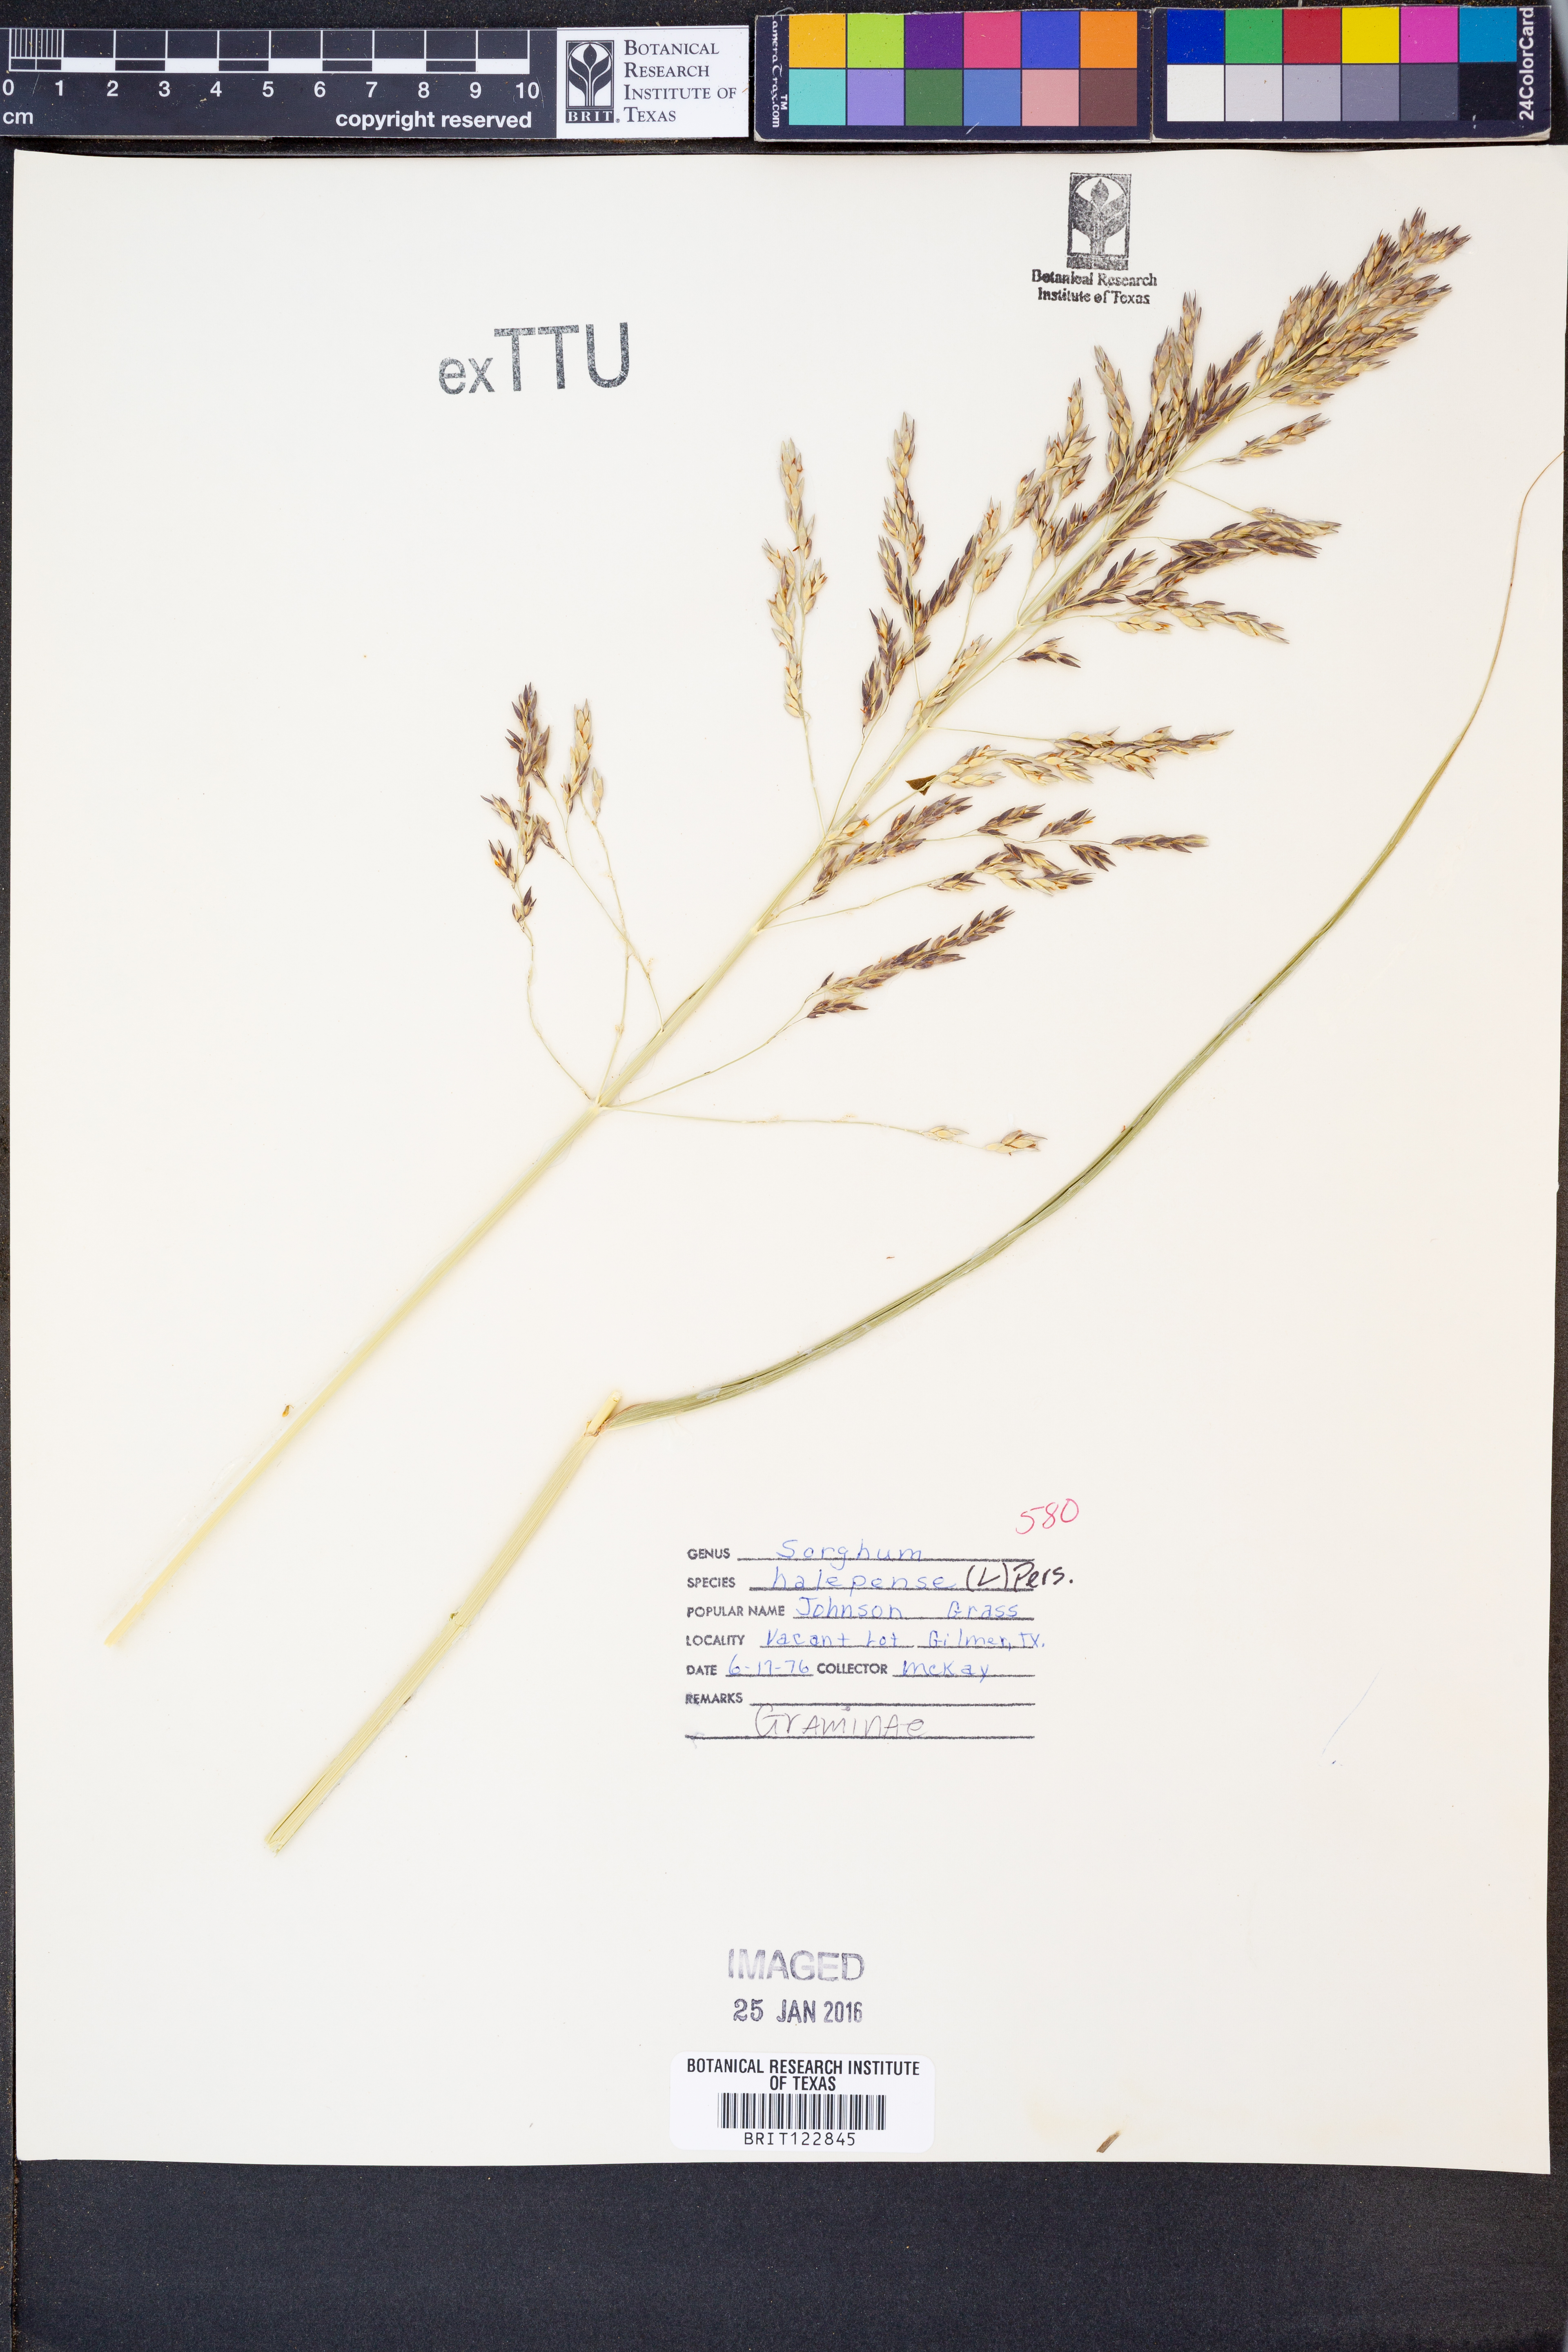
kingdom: Plantae
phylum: Tracheophyta
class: Liliopsida
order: Poales
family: Poaceae
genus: Sorghum
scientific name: Sorghum halepense
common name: Johnson-grass
